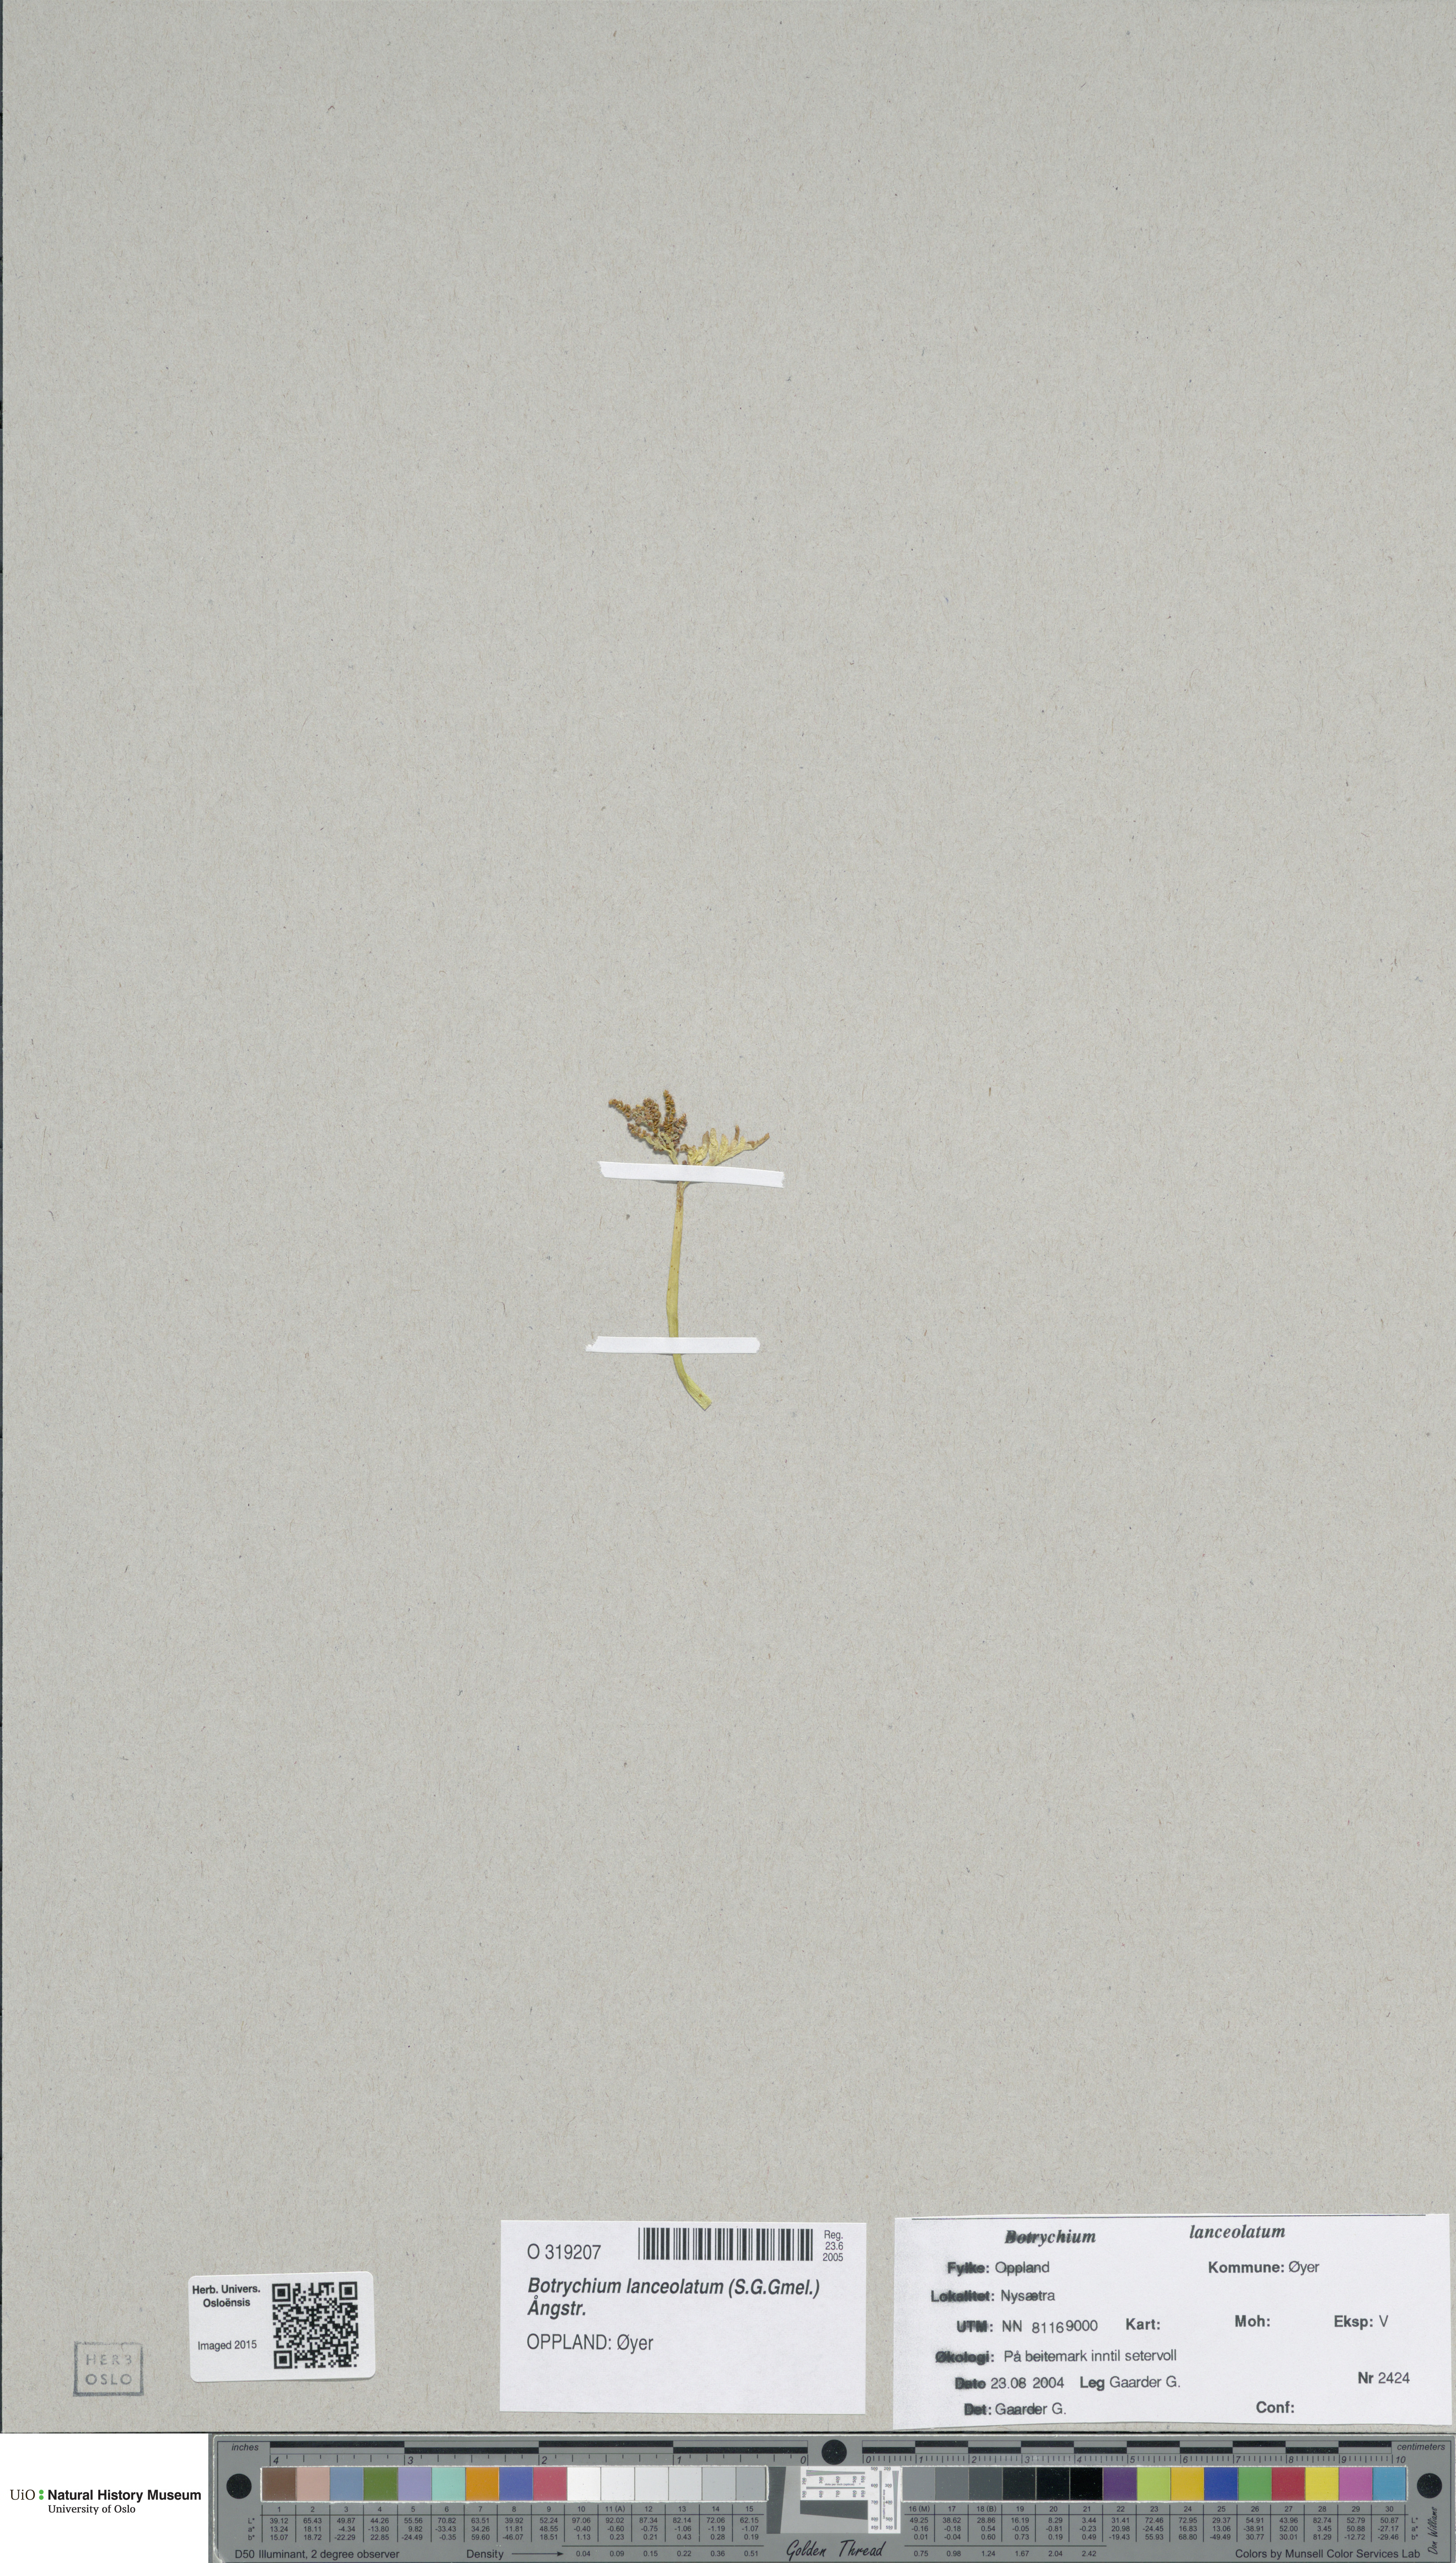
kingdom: Plantae
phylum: Tracheophyta
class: Polypodiopsida
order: Ophioglossales
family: Ophioglossaceae
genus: Botrychium
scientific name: Botrychium lanceolatum
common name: Lance-leaved moonwort
